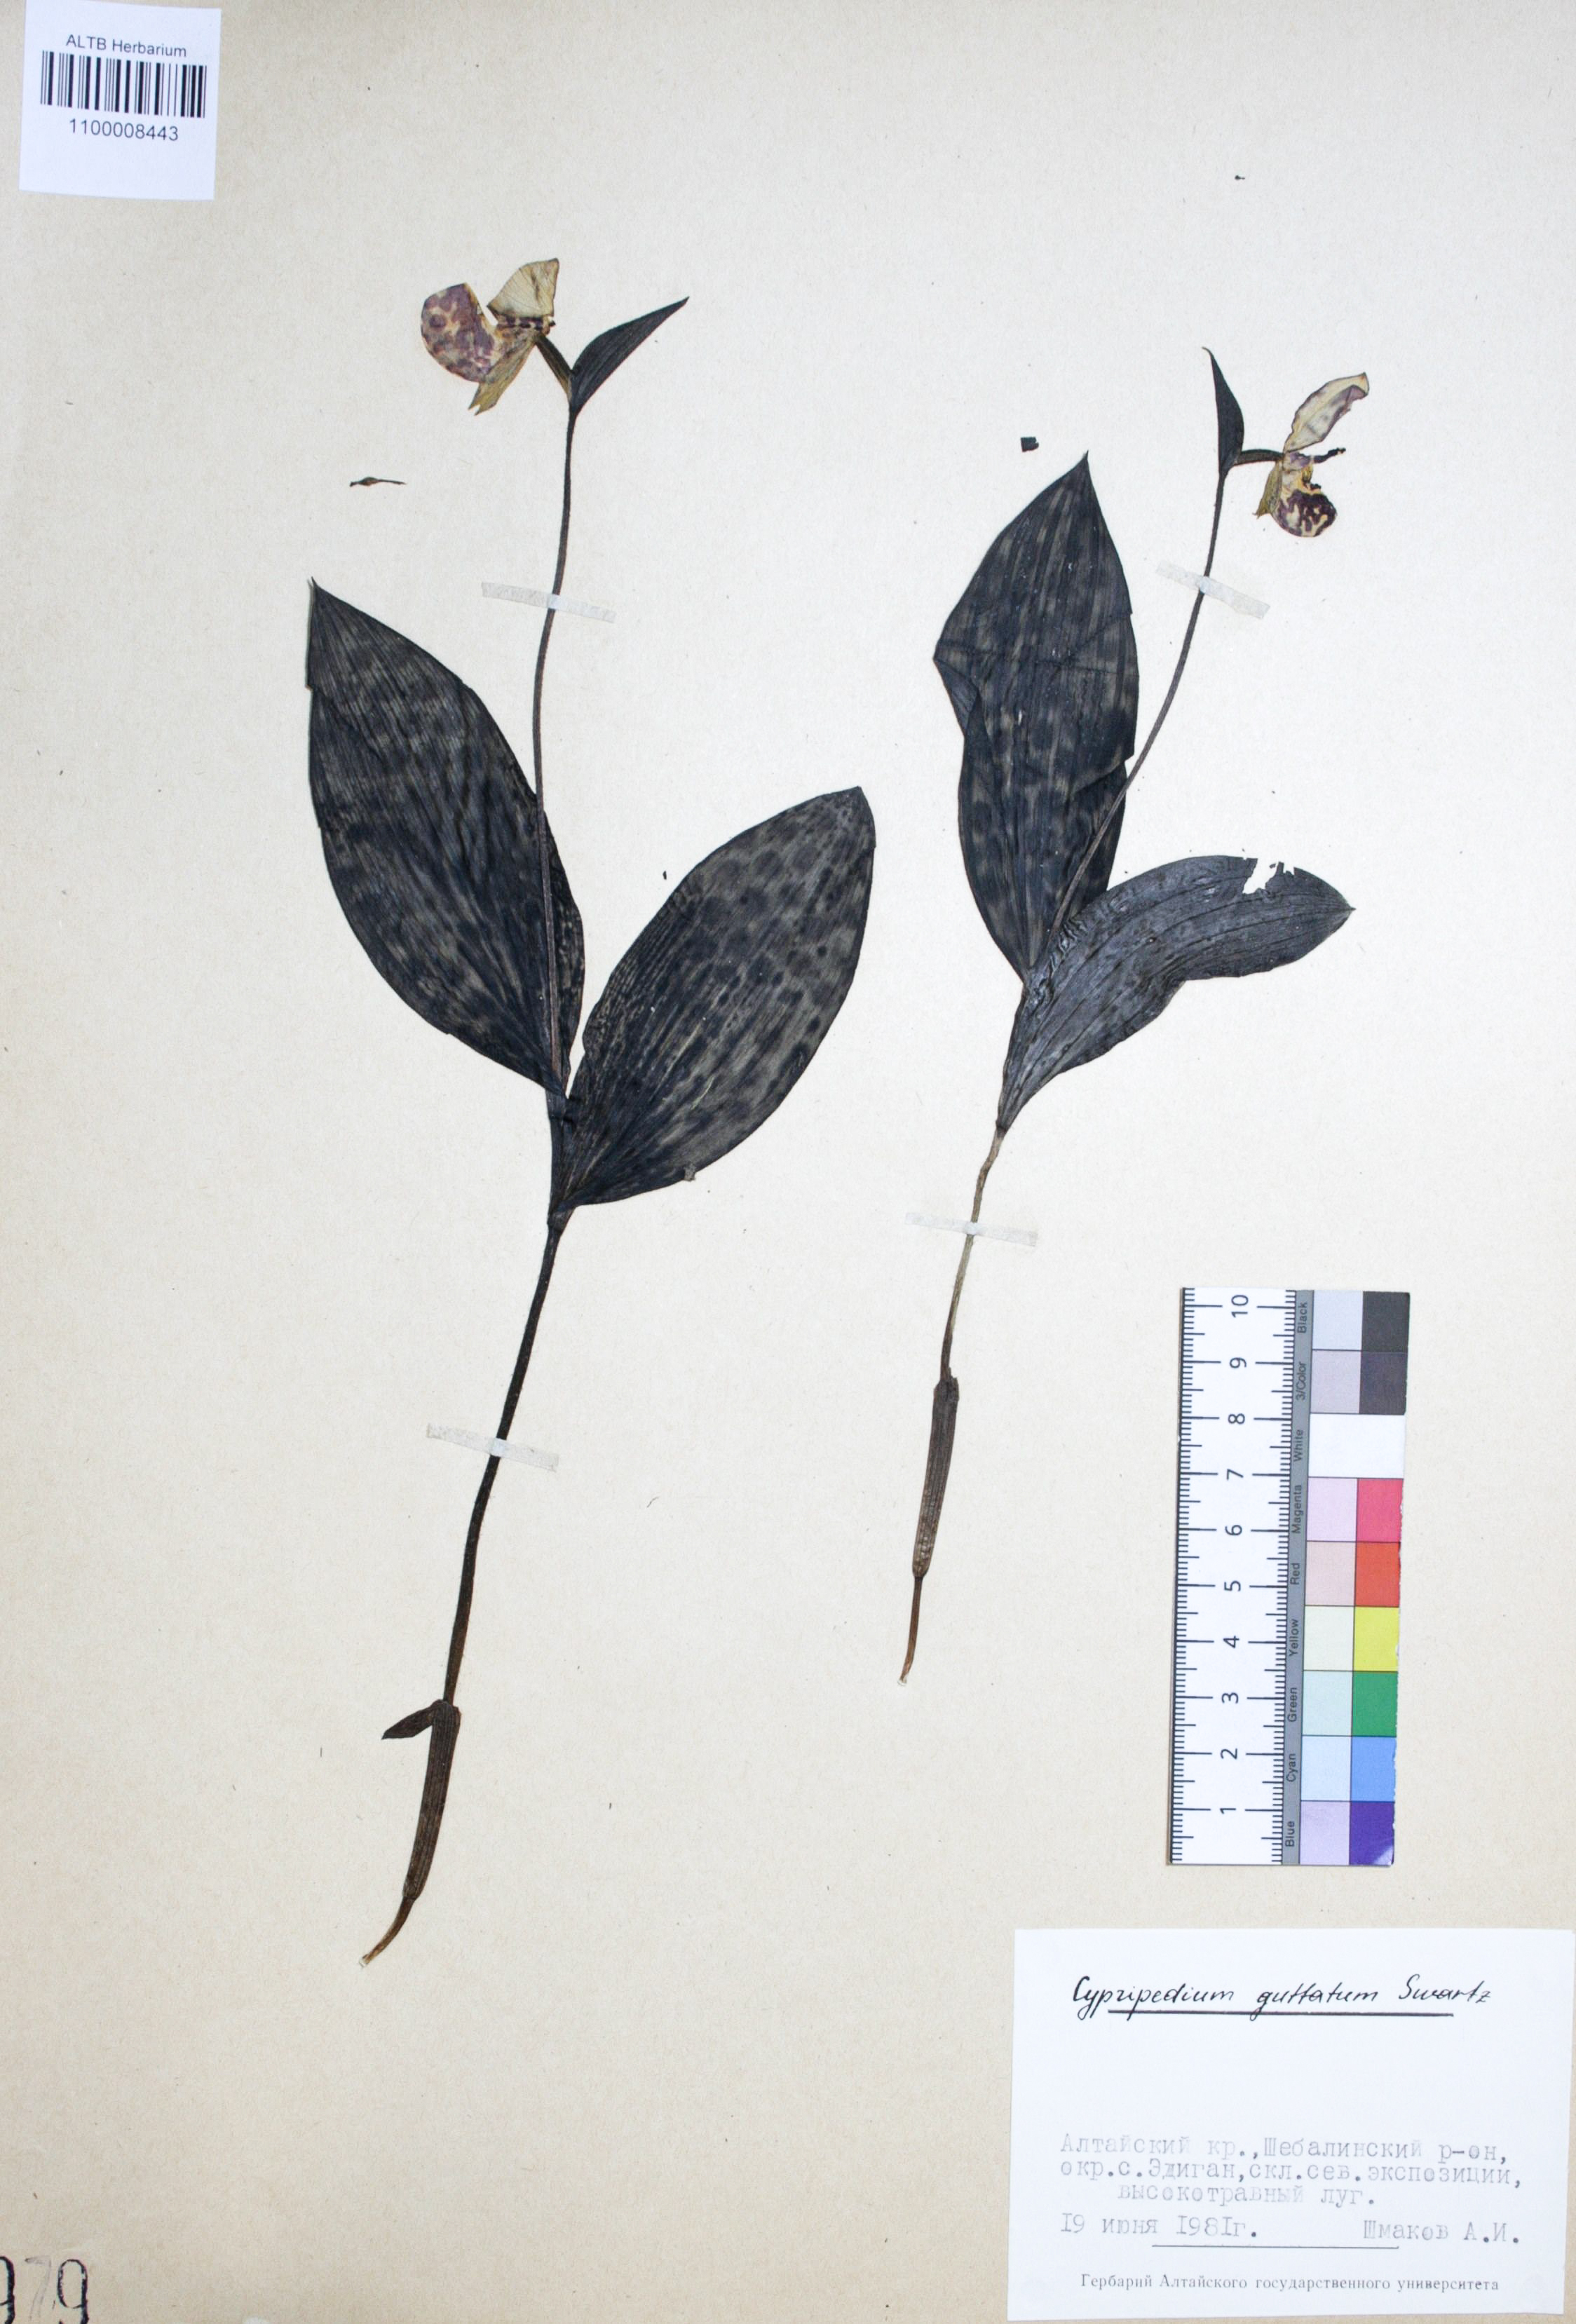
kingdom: Plantae
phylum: Tracheophyta
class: Liliopsida
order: Asparagales
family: Orchidaceae
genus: Cypripedium
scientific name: Cypripedium guttatum
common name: Pink lady slipper
